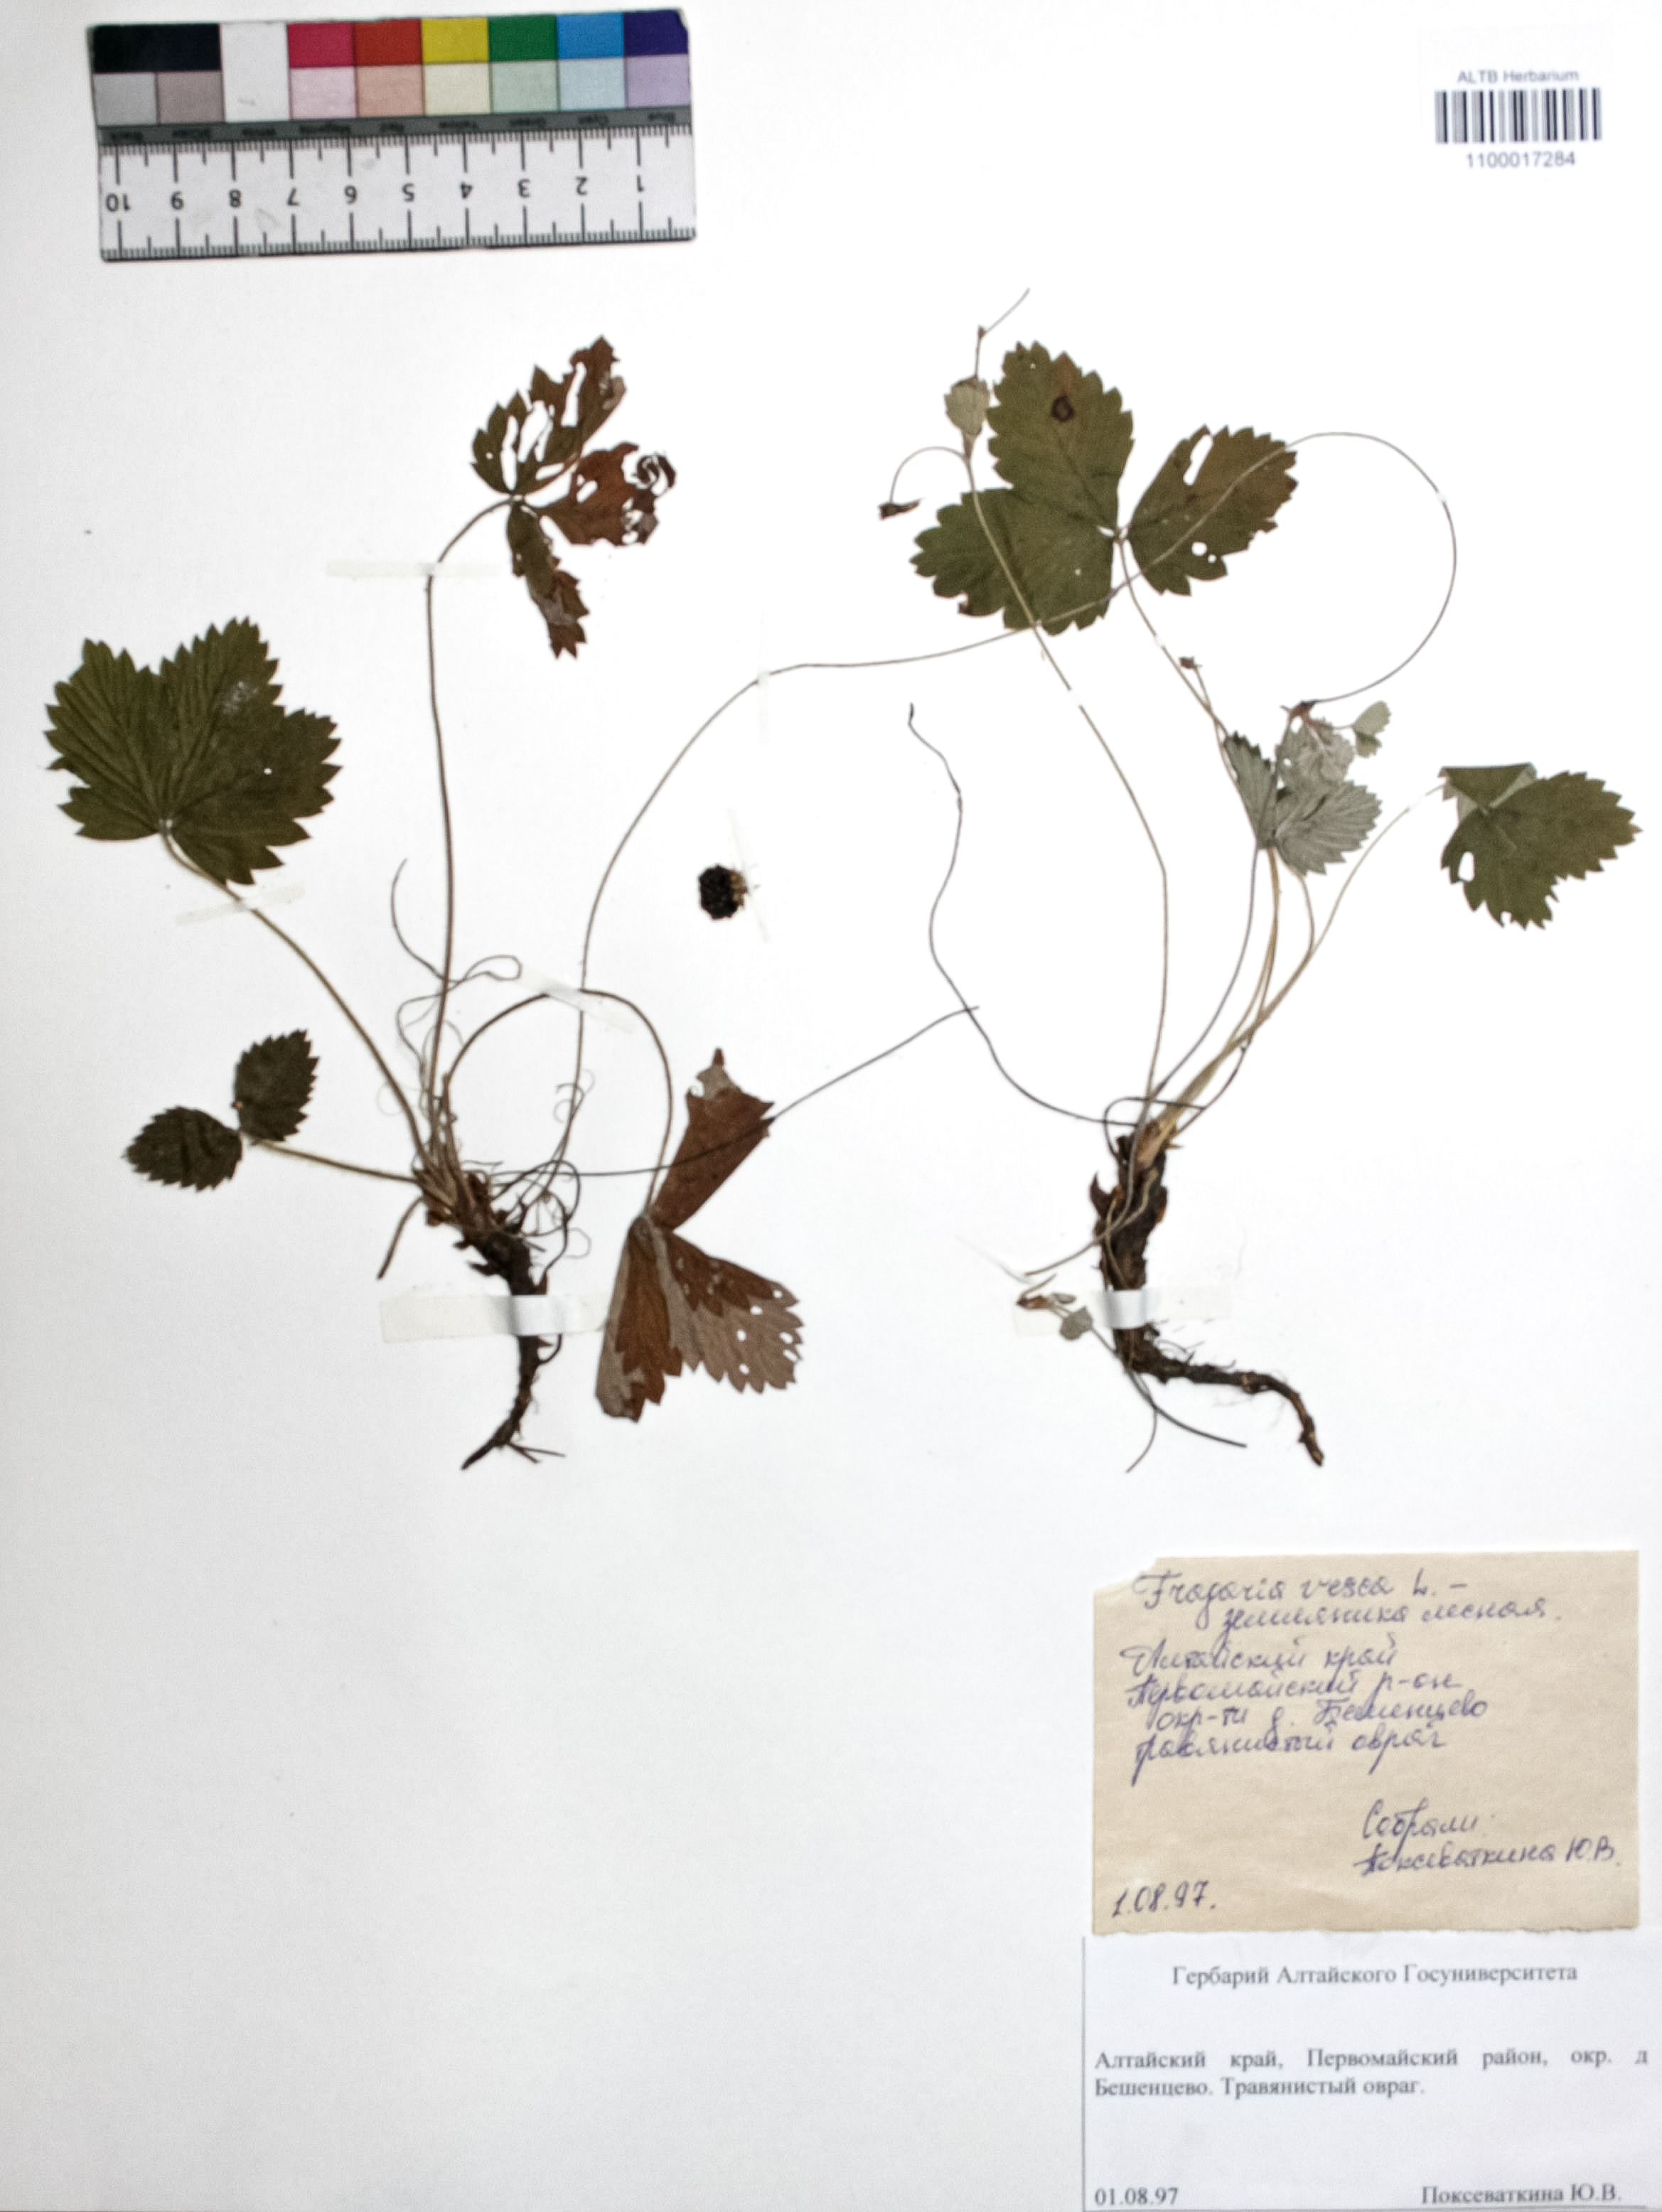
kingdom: Plantae
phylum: Tracheophyta
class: Magnoliopsida
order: Rosales
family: Rosaceae
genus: Fragaria
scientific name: Fragaria vesca
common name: Wild strawberry
